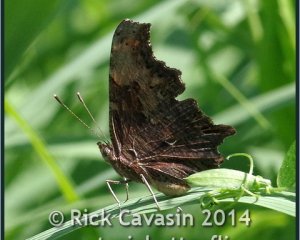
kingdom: Animalia
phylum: Arthropoda
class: Insecta
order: Lepidoptera
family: Nymphalidae
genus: Polygonia
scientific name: Polygonia progne
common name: Gray Comma
